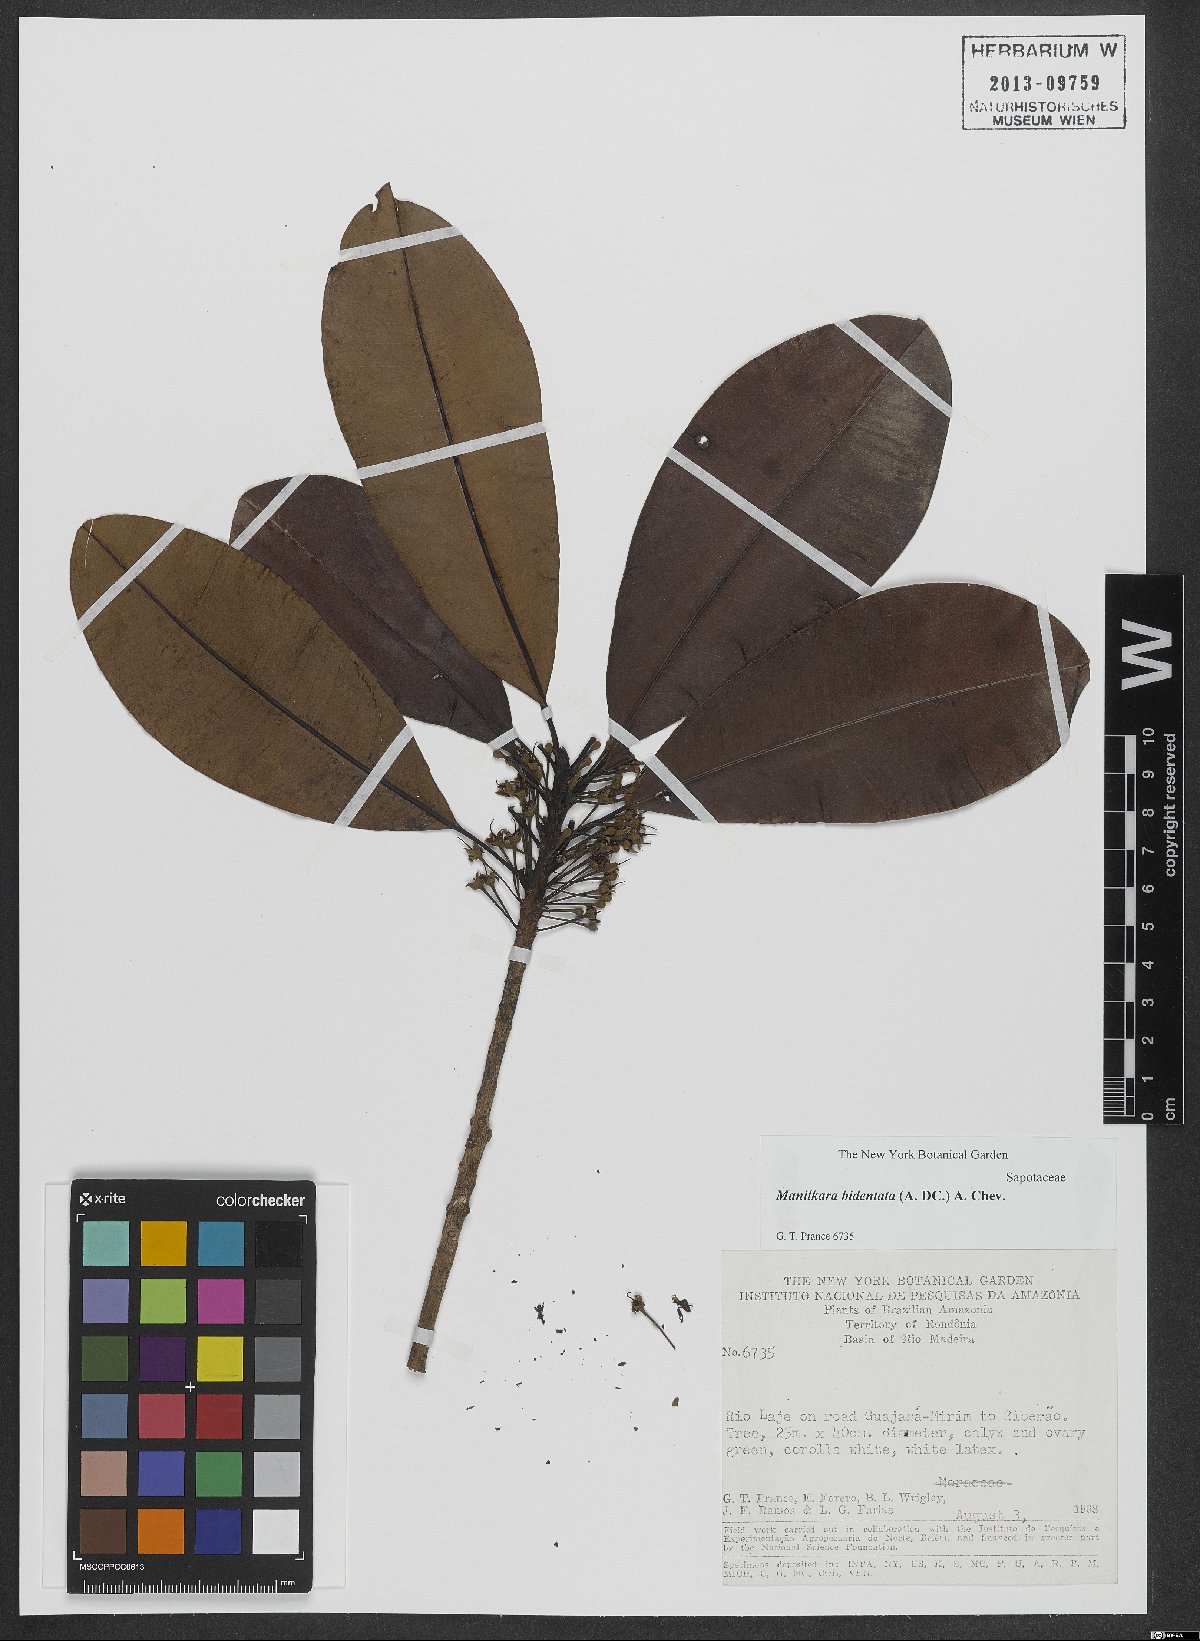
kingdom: Plantae
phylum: Tracheophyta
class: Magnoliopsida
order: Ericales
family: Sapotaceae
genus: Manilkara
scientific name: Manilkara bidentata
